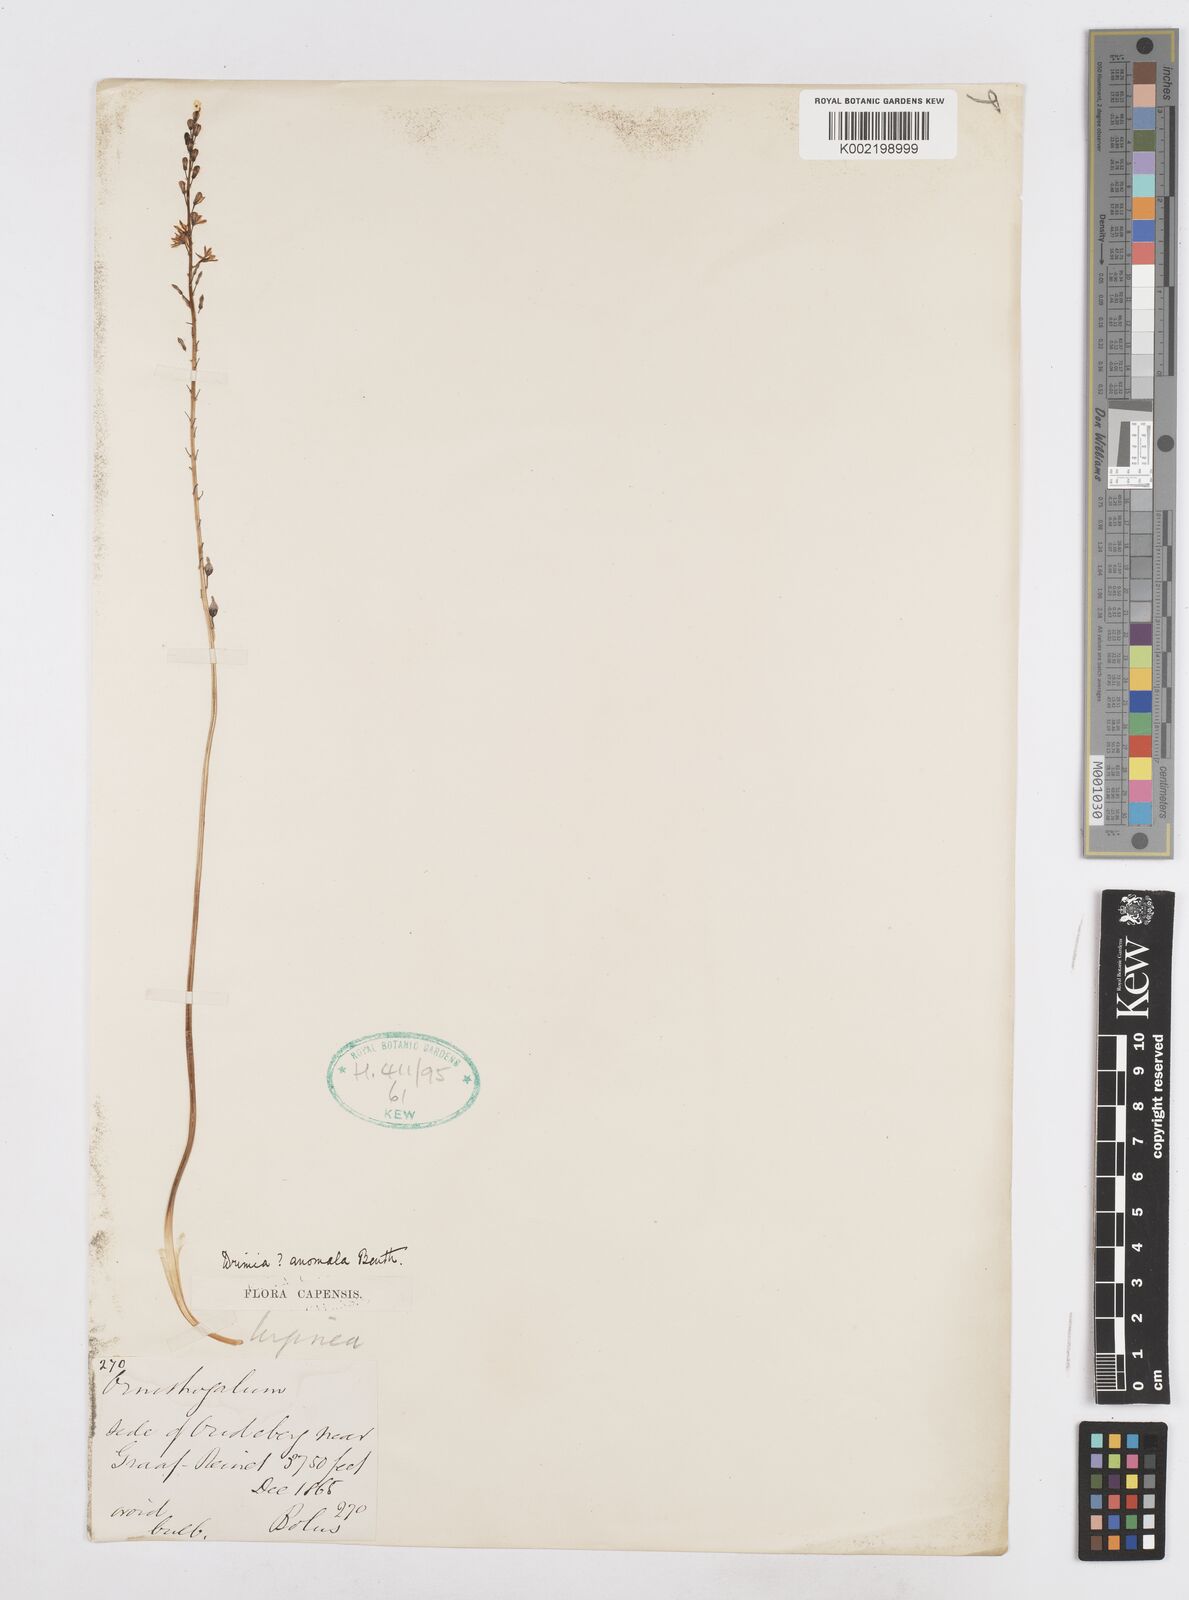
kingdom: Plantae
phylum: Tracheophyta
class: Liliopsida
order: Asparagales
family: Asparagaceae
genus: Drimia
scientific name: Drimia anomala
